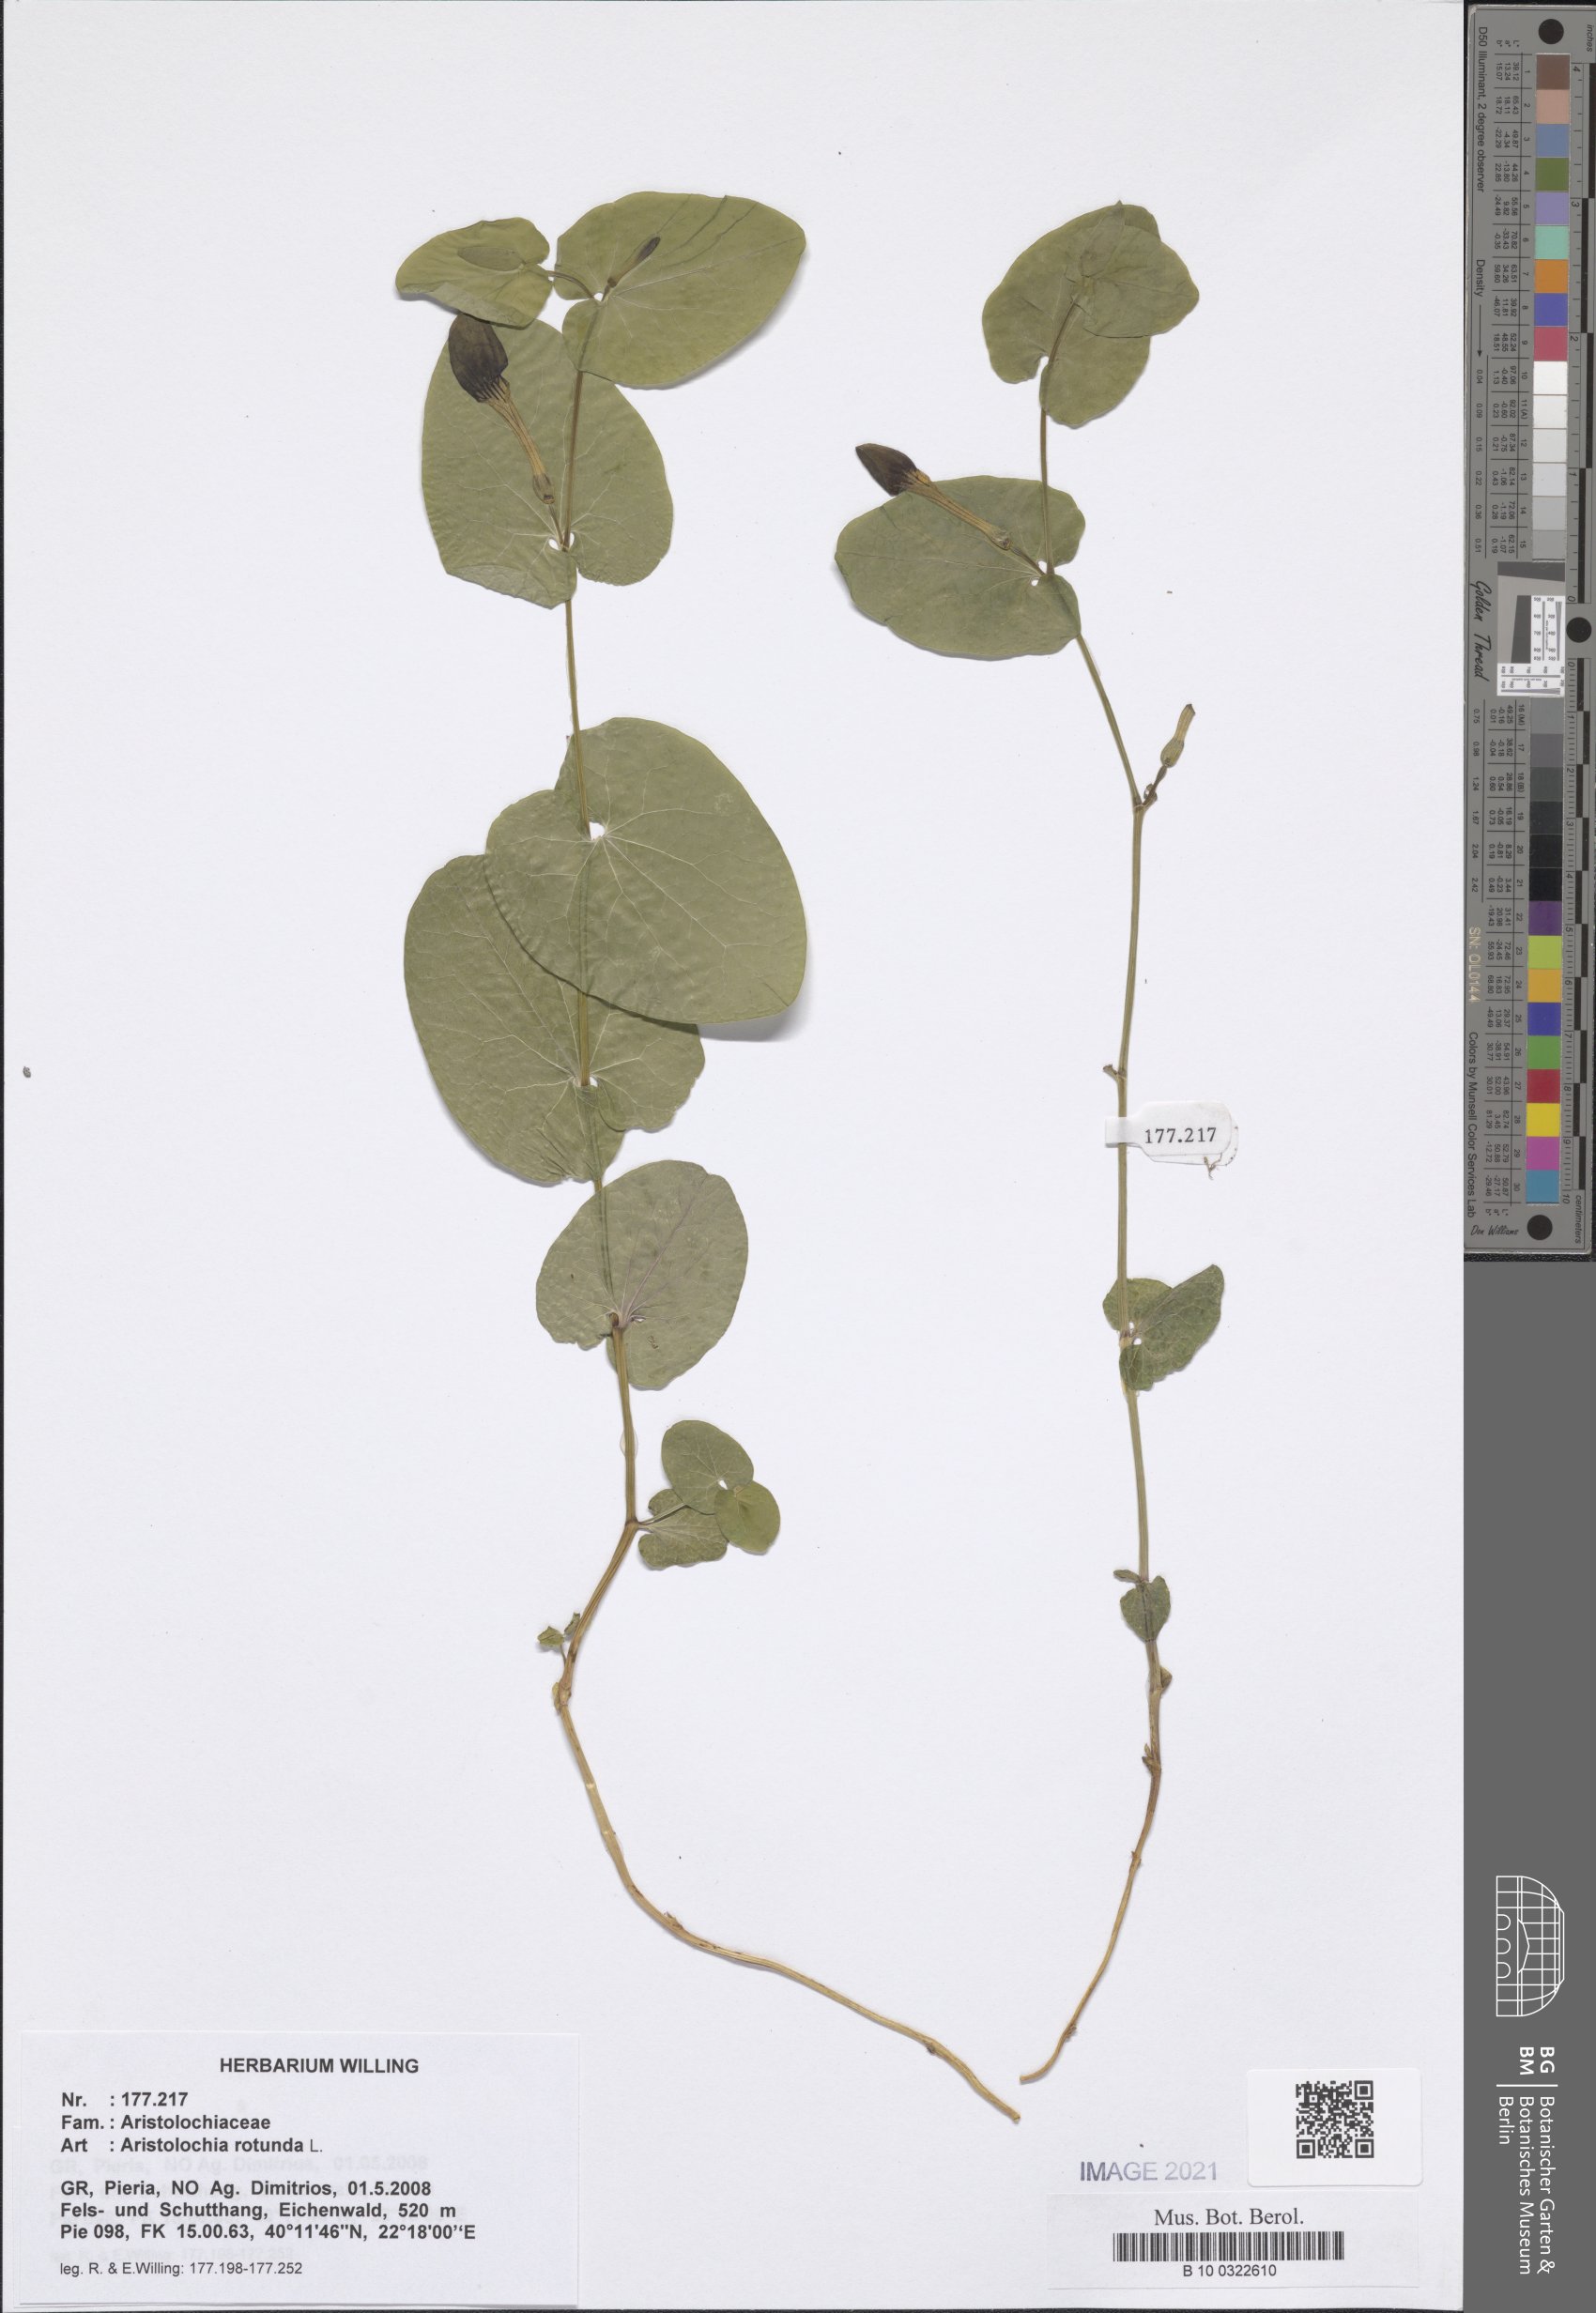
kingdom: Plantae
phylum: Tracheophyta
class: Magnoliopsida
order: Piperales
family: Aristolochiaceae
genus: Aristolochia
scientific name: Aristolochia rotunda
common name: Smearwort
